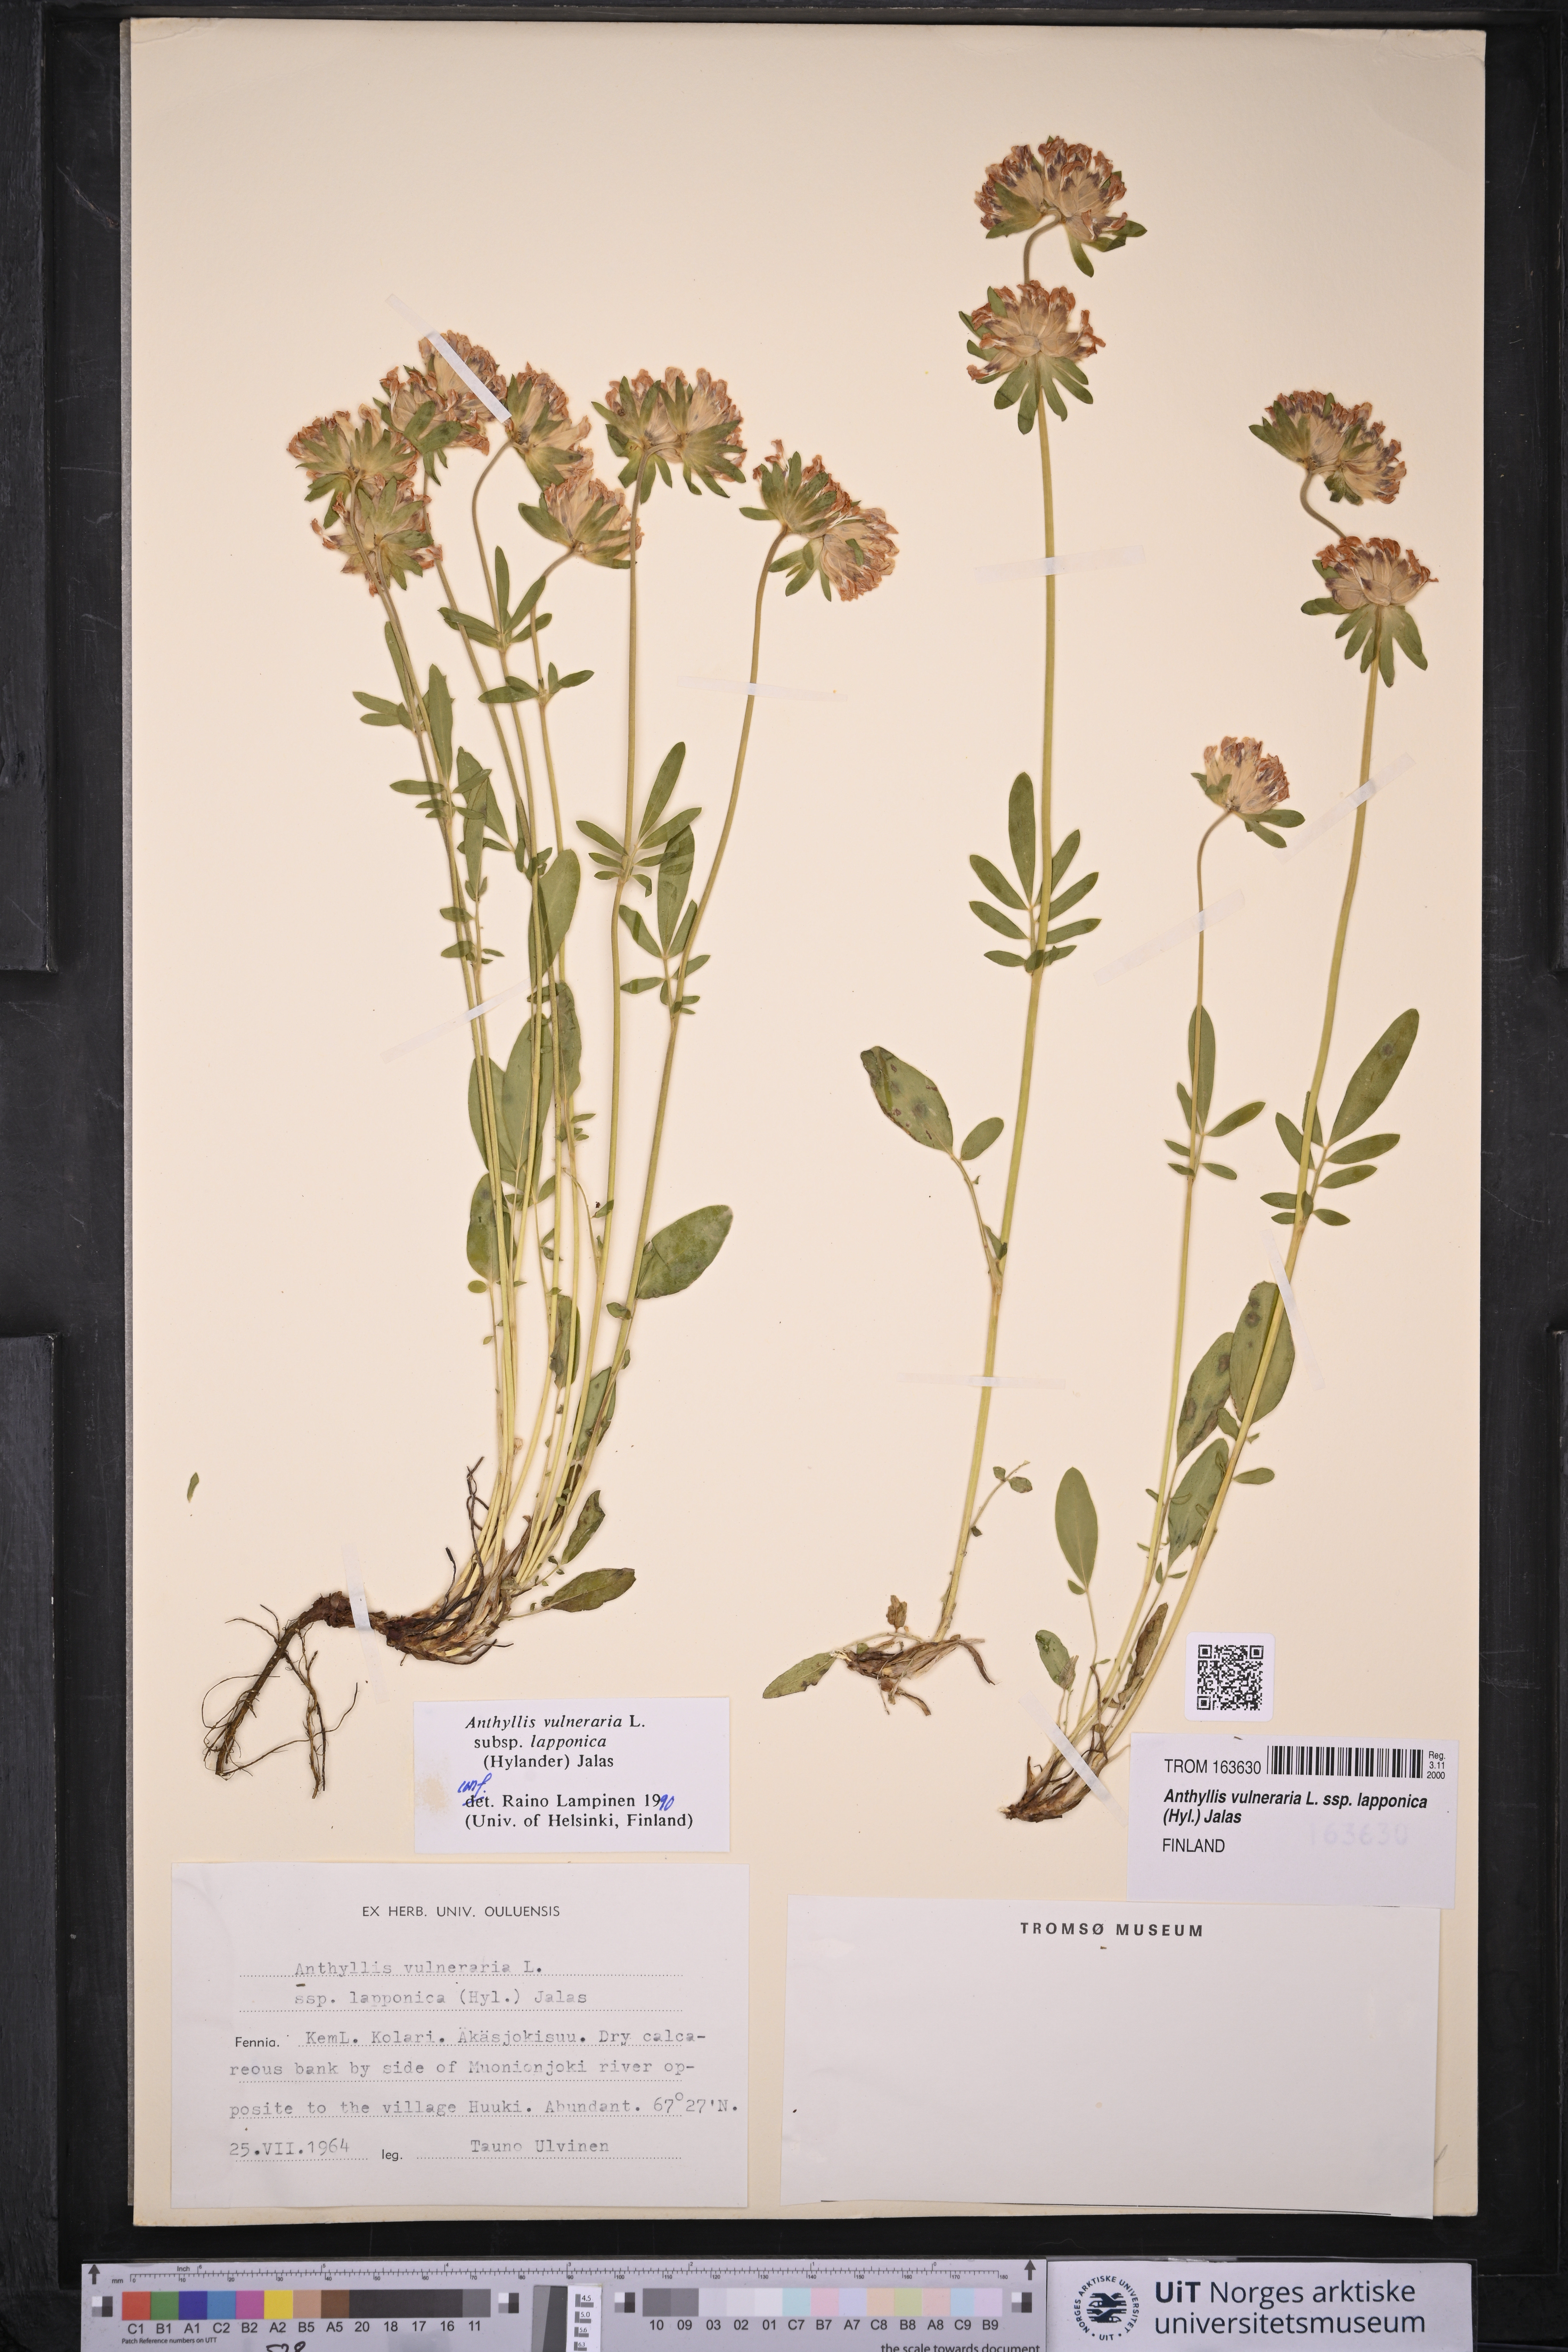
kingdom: Plantae
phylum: Tracheophyta
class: Magnoliopsida
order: Fabales
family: Fabaceae
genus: Anthyllis
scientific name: Anthyllis vulneraria
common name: Kidney vetch
